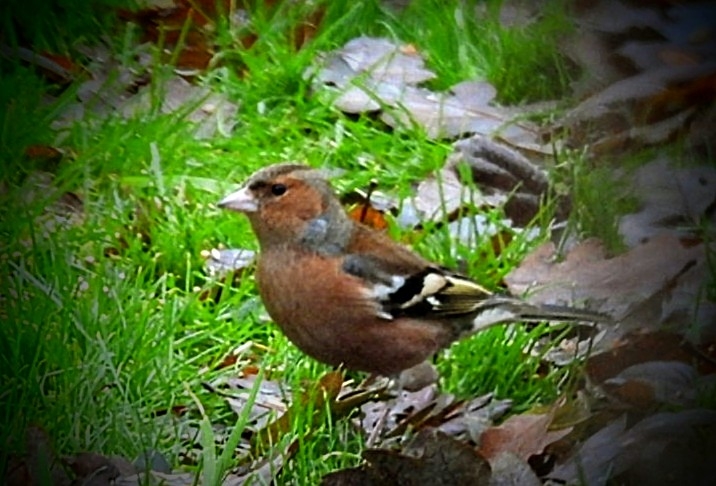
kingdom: Animalia
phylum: Chordata
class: Aves
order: Passeriformes
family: Fringillidae
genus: Fringilla
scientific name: Fringilla coelebs
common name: Bogfinke
